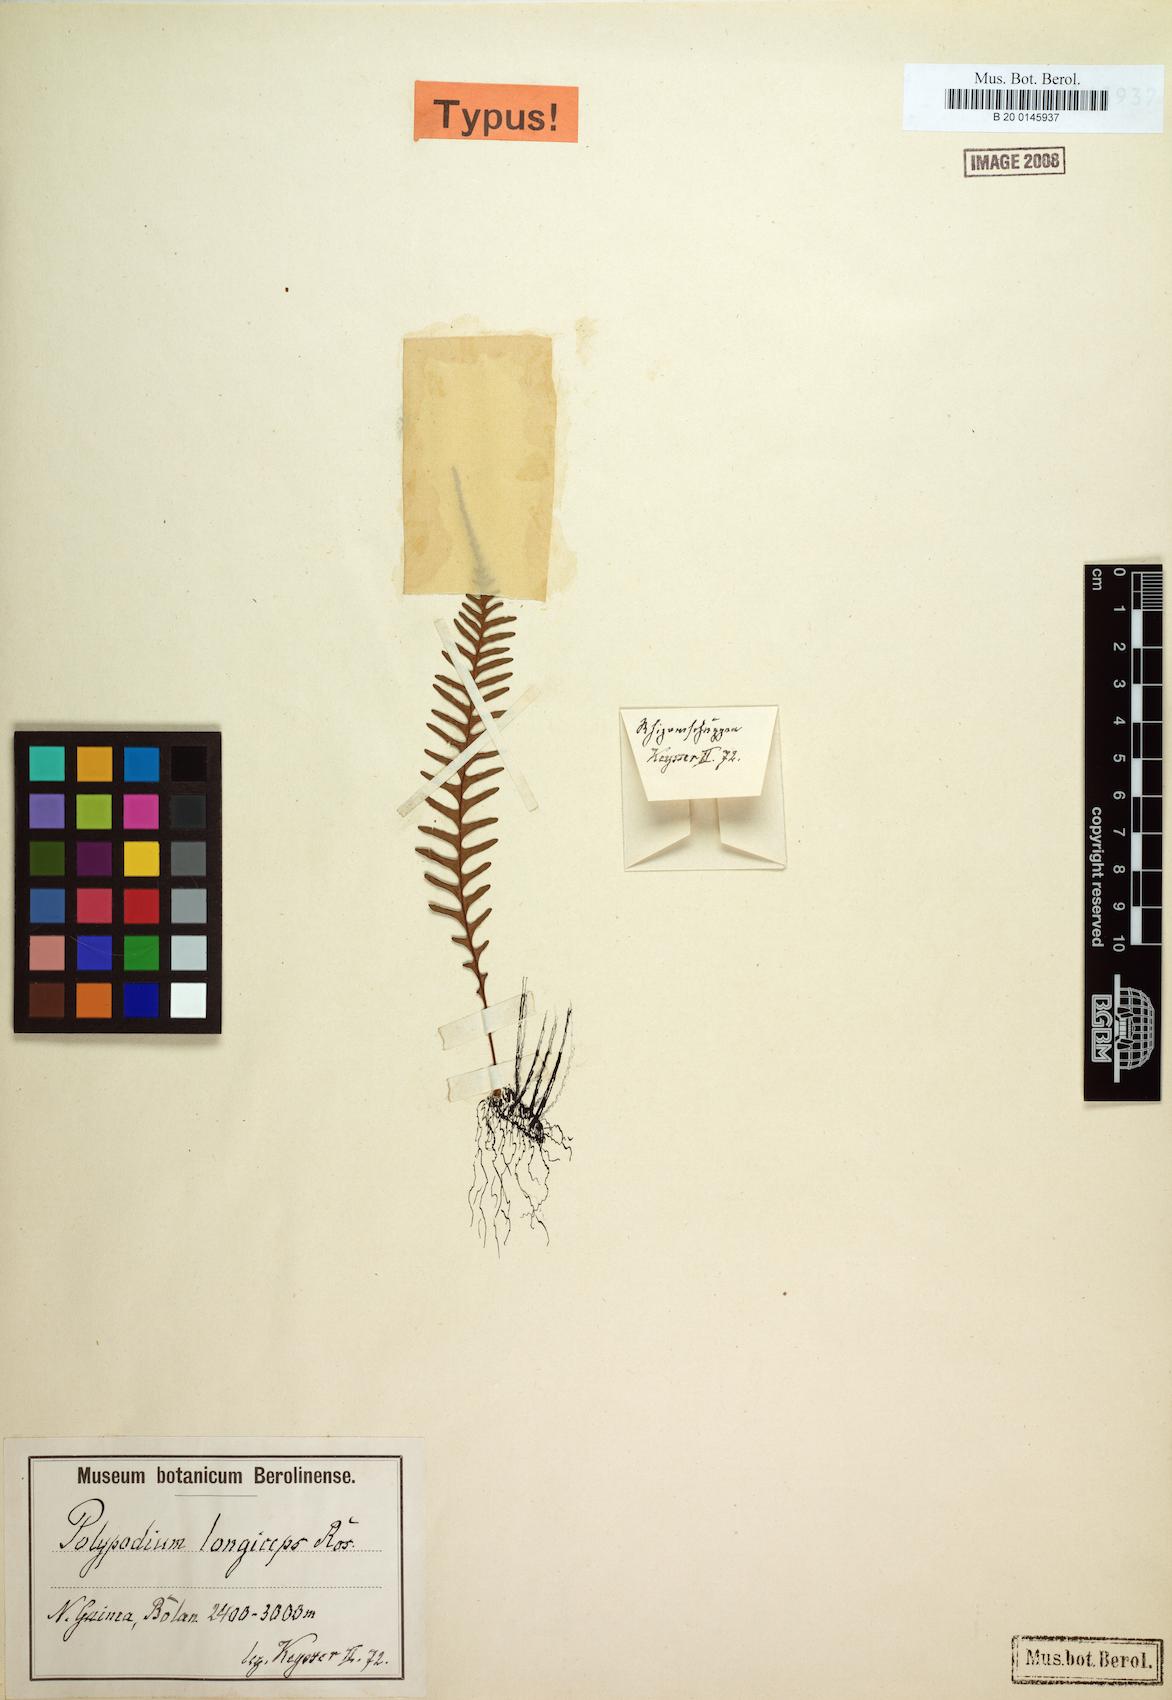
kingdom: Plantae
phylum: Tracheophyta
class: Polypodiopsida
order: Polypodiales
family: Polypodiaceae
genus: Oreogrammitis
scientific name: Oreogrammitis longiceps
